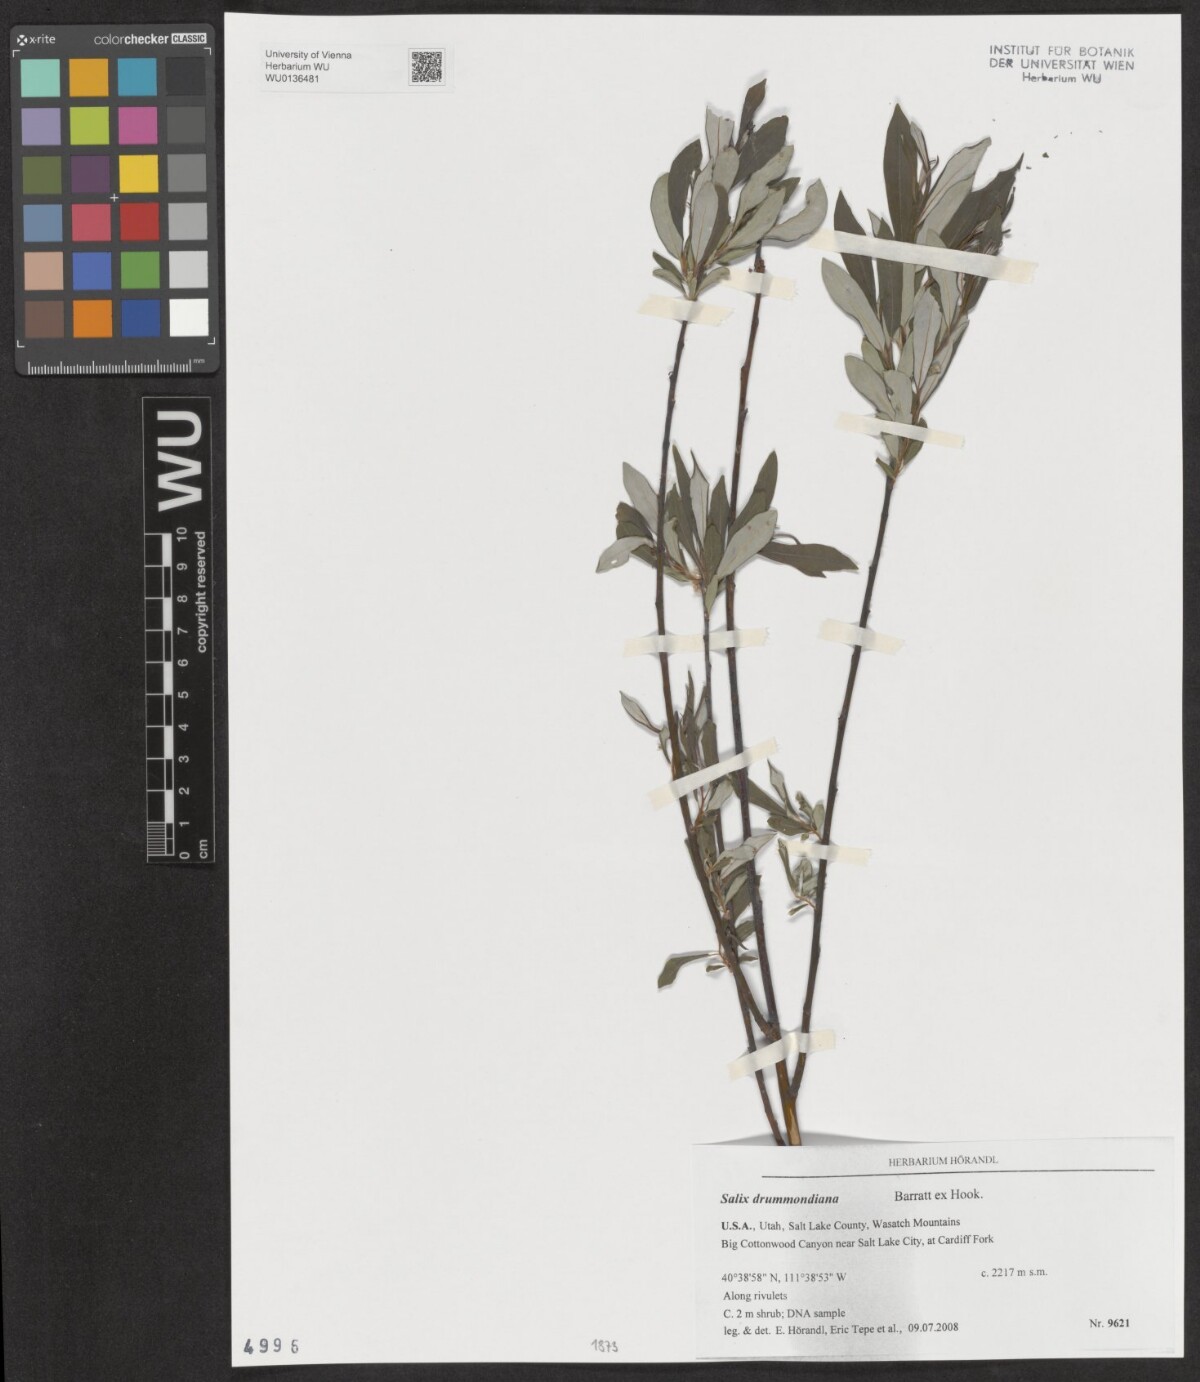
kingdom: Plantae
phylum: Tracheophyta
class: Magnoliopsida
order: Malpighiales
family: Salicaceae
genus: Salix
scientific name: Salix drummondiana
